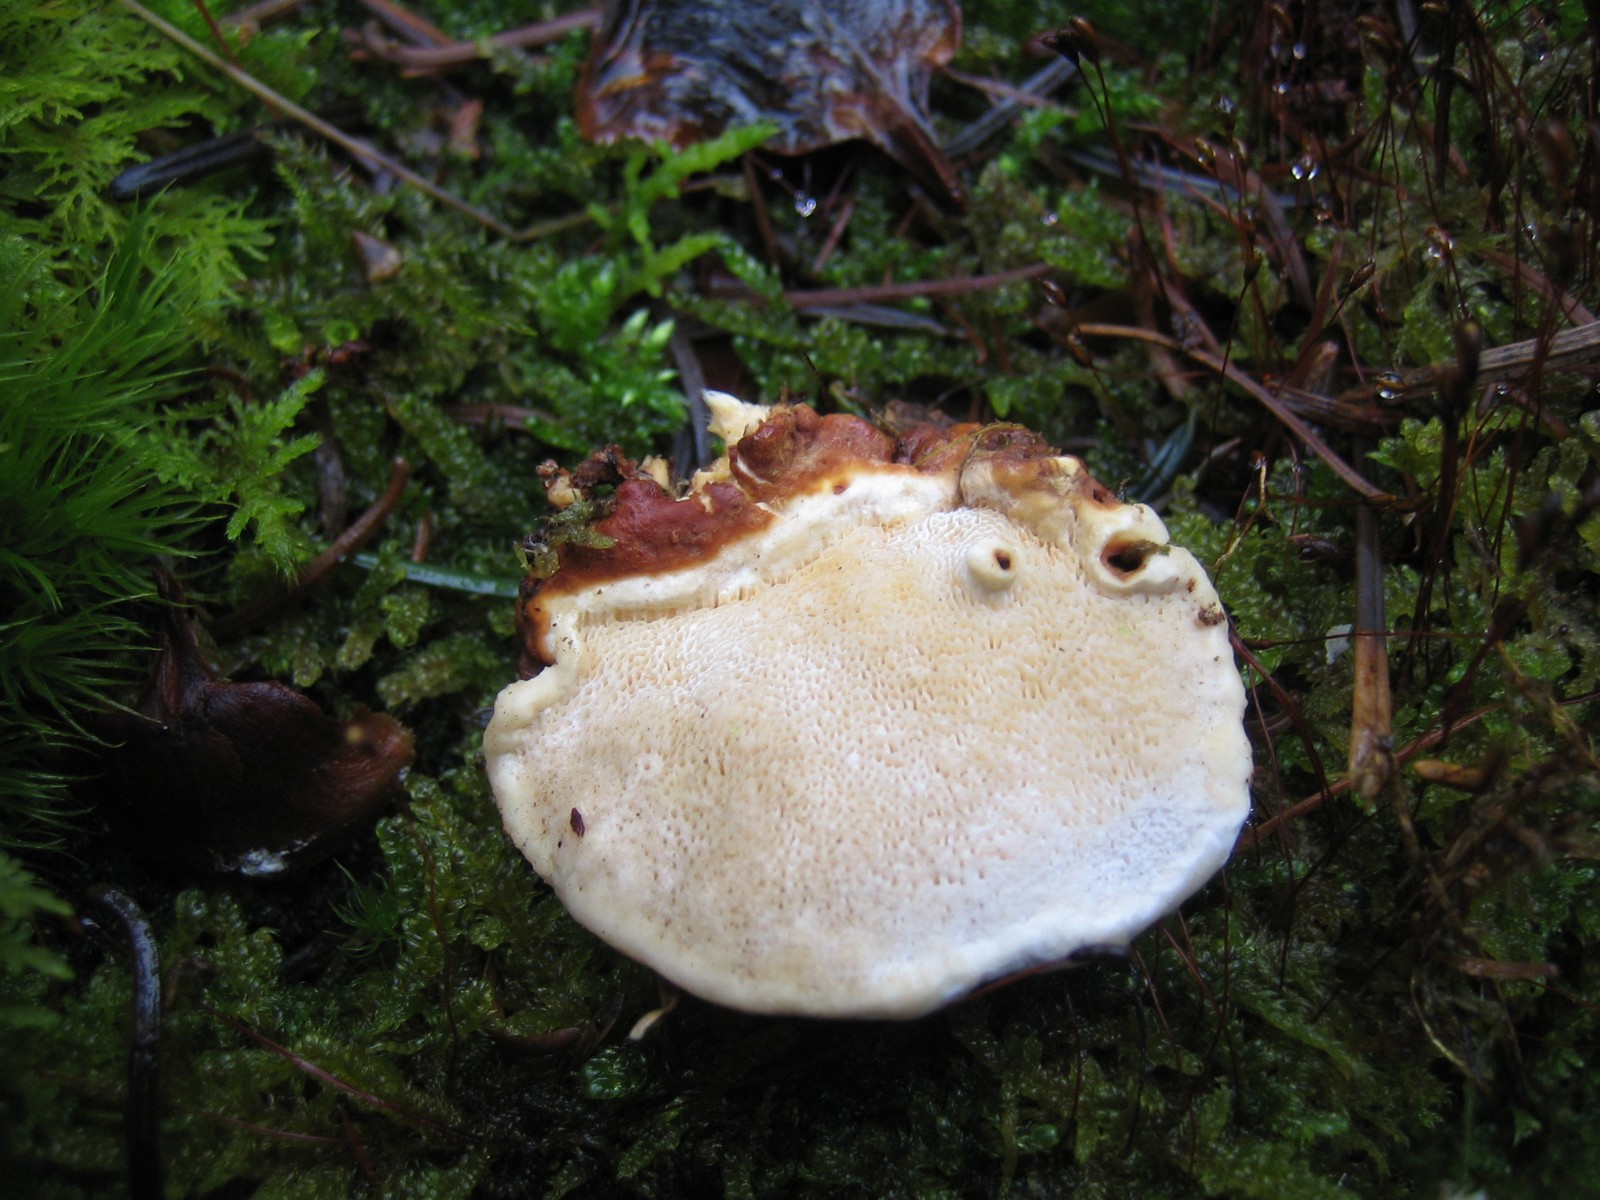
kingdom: Fungi
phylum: Basidiomycota
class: Agaricomycetes
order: Russulales
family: Bondarzewiaceae
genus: Heterobasidion
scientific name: Heterobasidion annosum
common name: almindelig rodfordærver
